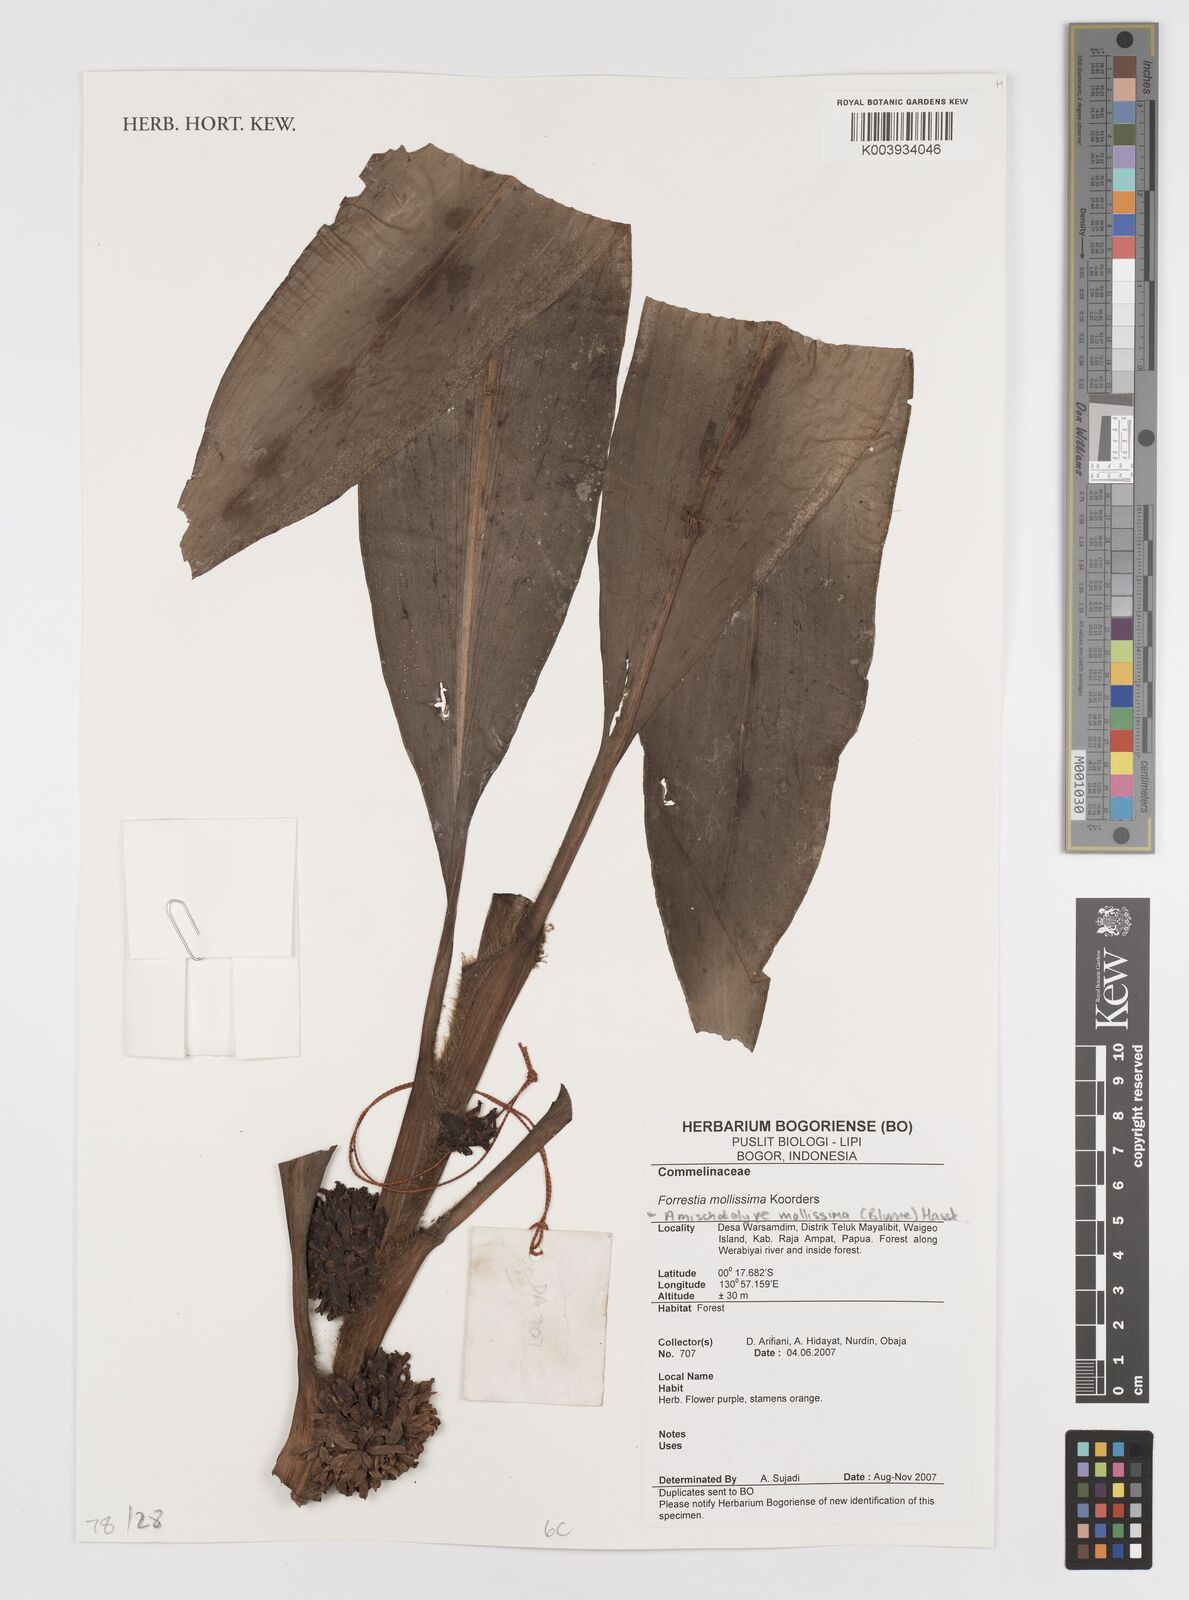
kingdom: Plantae
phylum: Tracheophyta
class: Liliopsida
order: Commelinales
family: Commelinaceae
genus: Amischotolype
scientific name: Amischotolype mollissima
